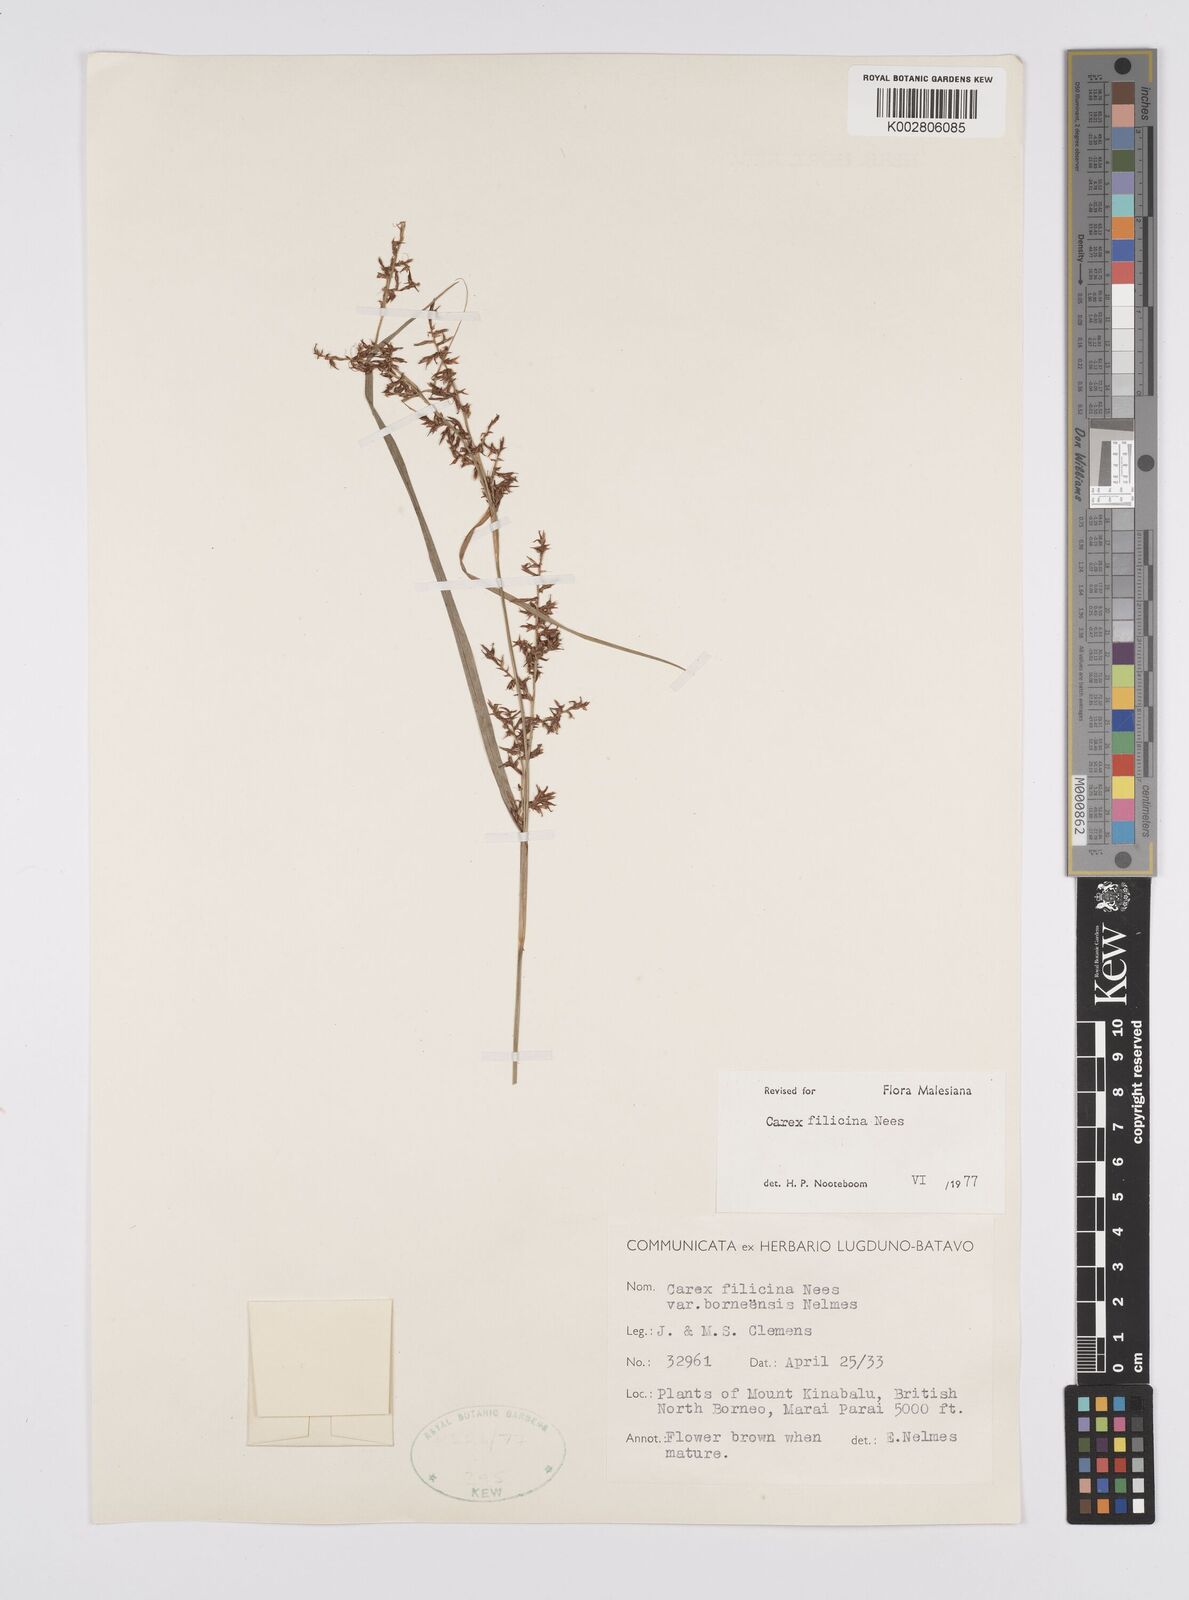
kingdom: Plantae
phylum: Tracheophyta
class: Liliopsida
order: Poales
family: Cyperaceae
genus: Carex
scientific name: Carex filicina
